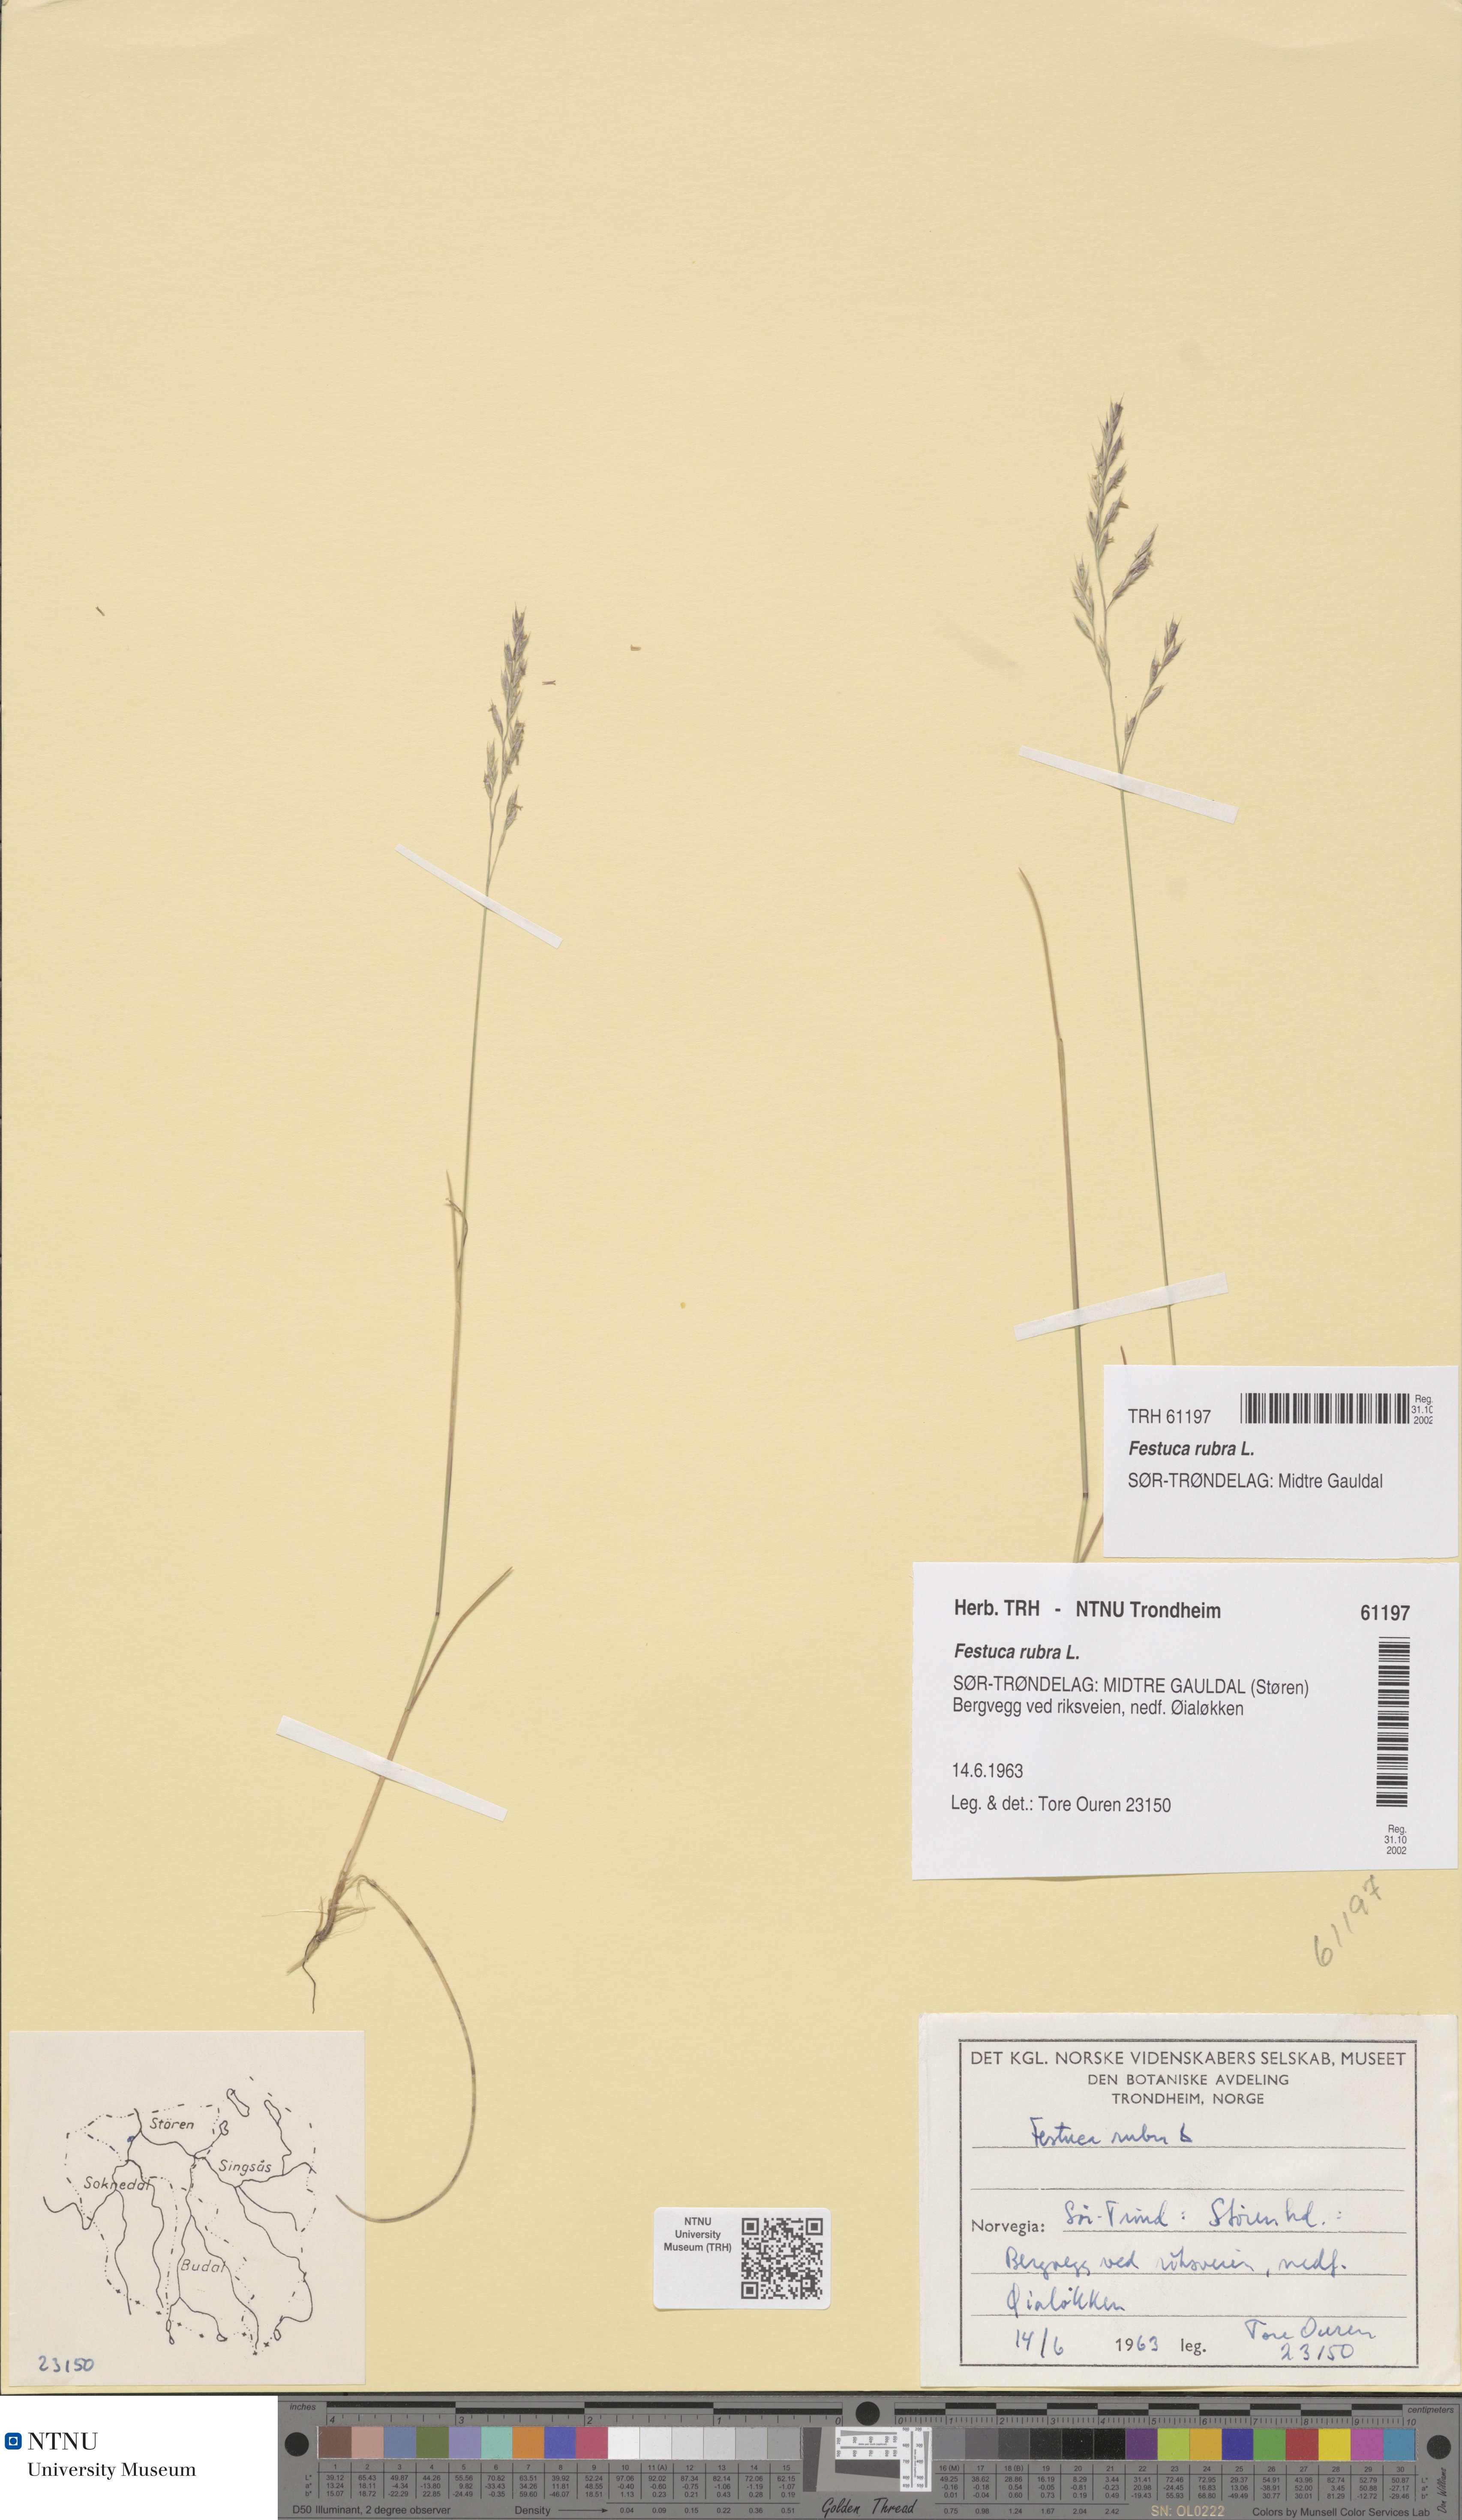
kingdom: Plantae
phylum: Tracheophyta
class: Liliopsida
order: Poales
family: Poaceae
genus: Festuca
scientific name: Festuca rubra
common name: Red fescue
